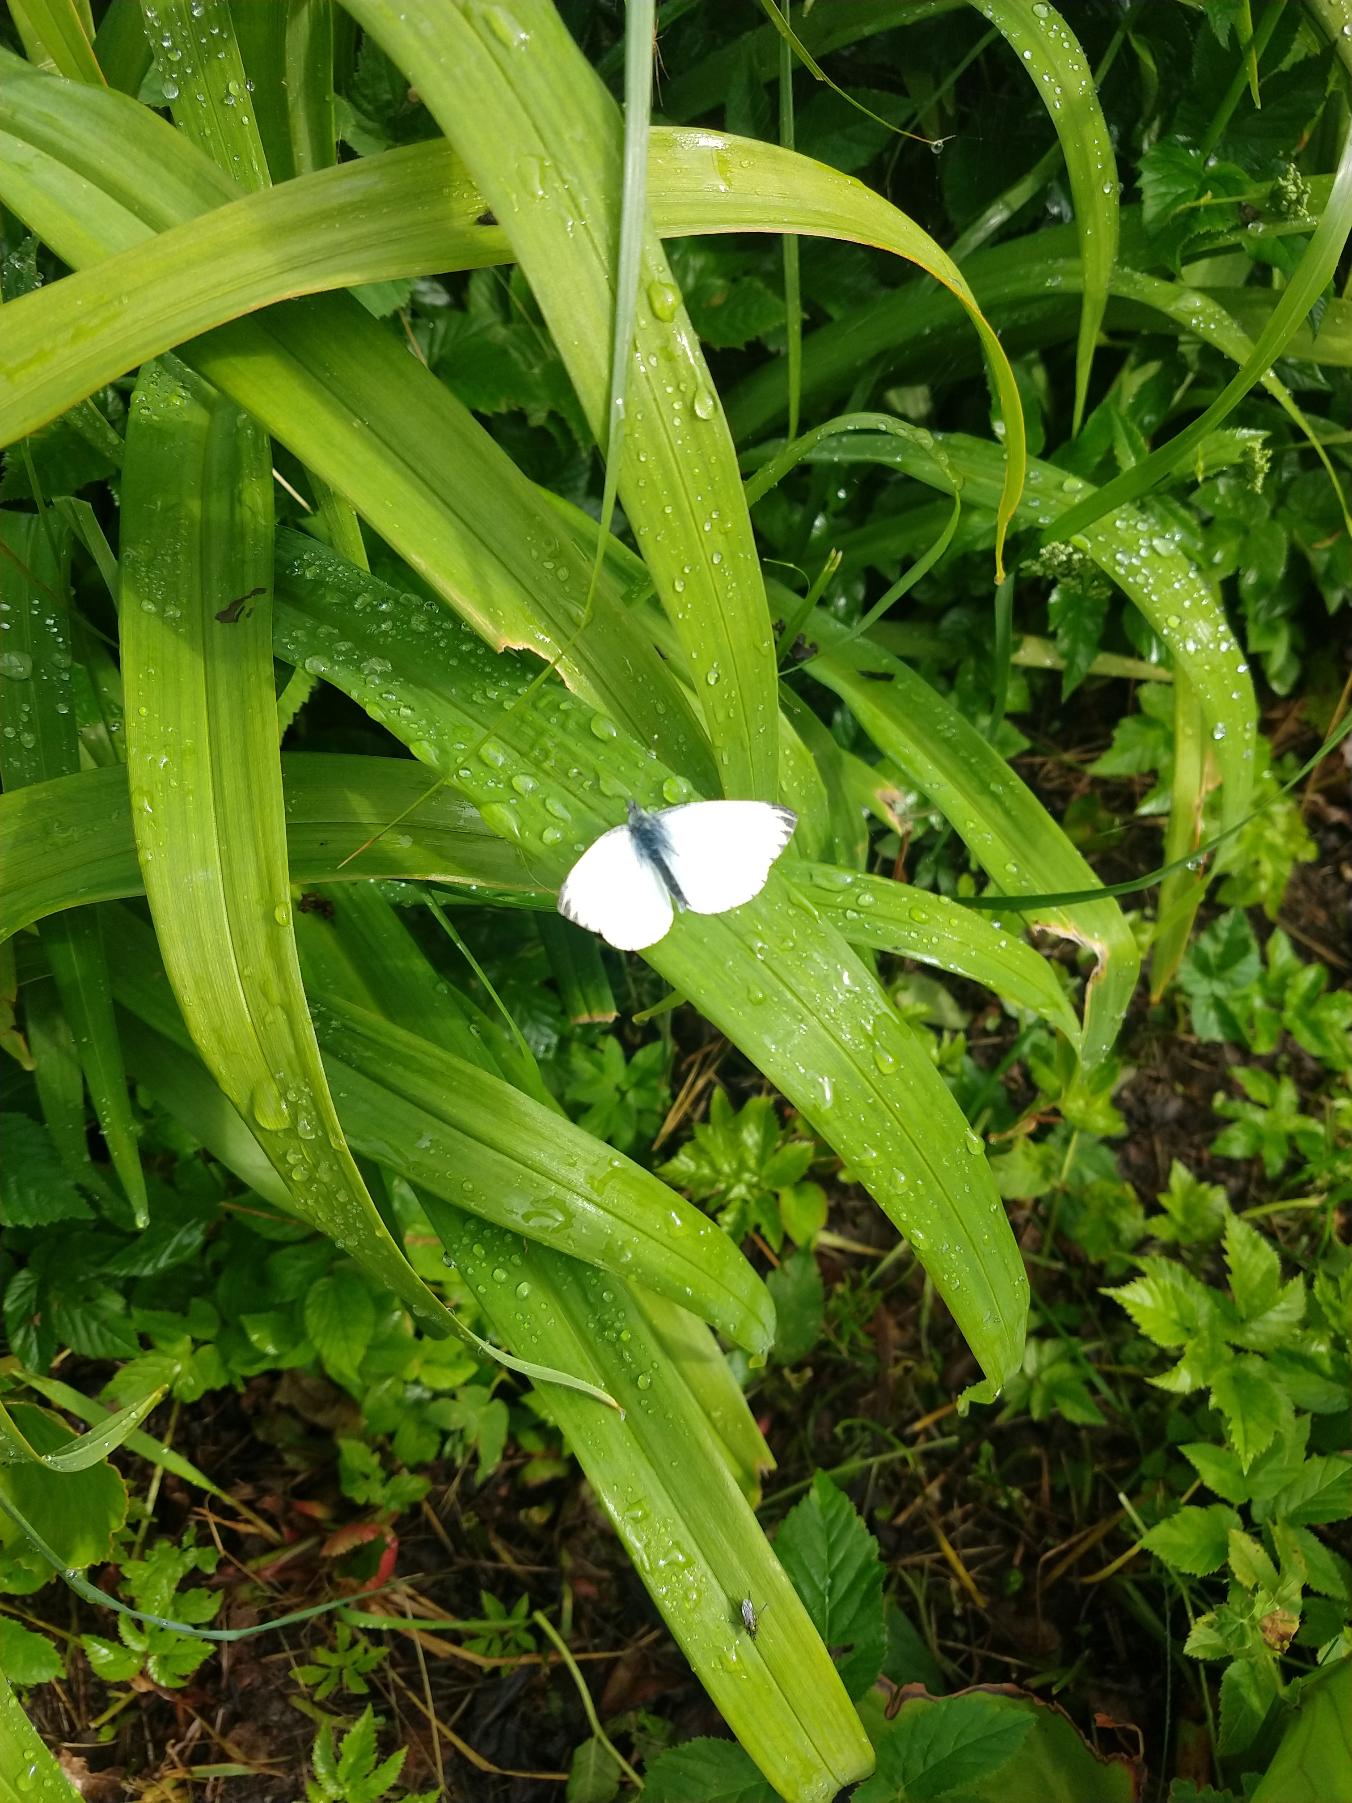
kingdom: Animalia
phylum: Arthropoda
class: Insecta
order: Lepidoptera
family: Pieridae
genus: Pieris
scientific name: Pieris napi
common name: Grønåret kålsommerfugl
